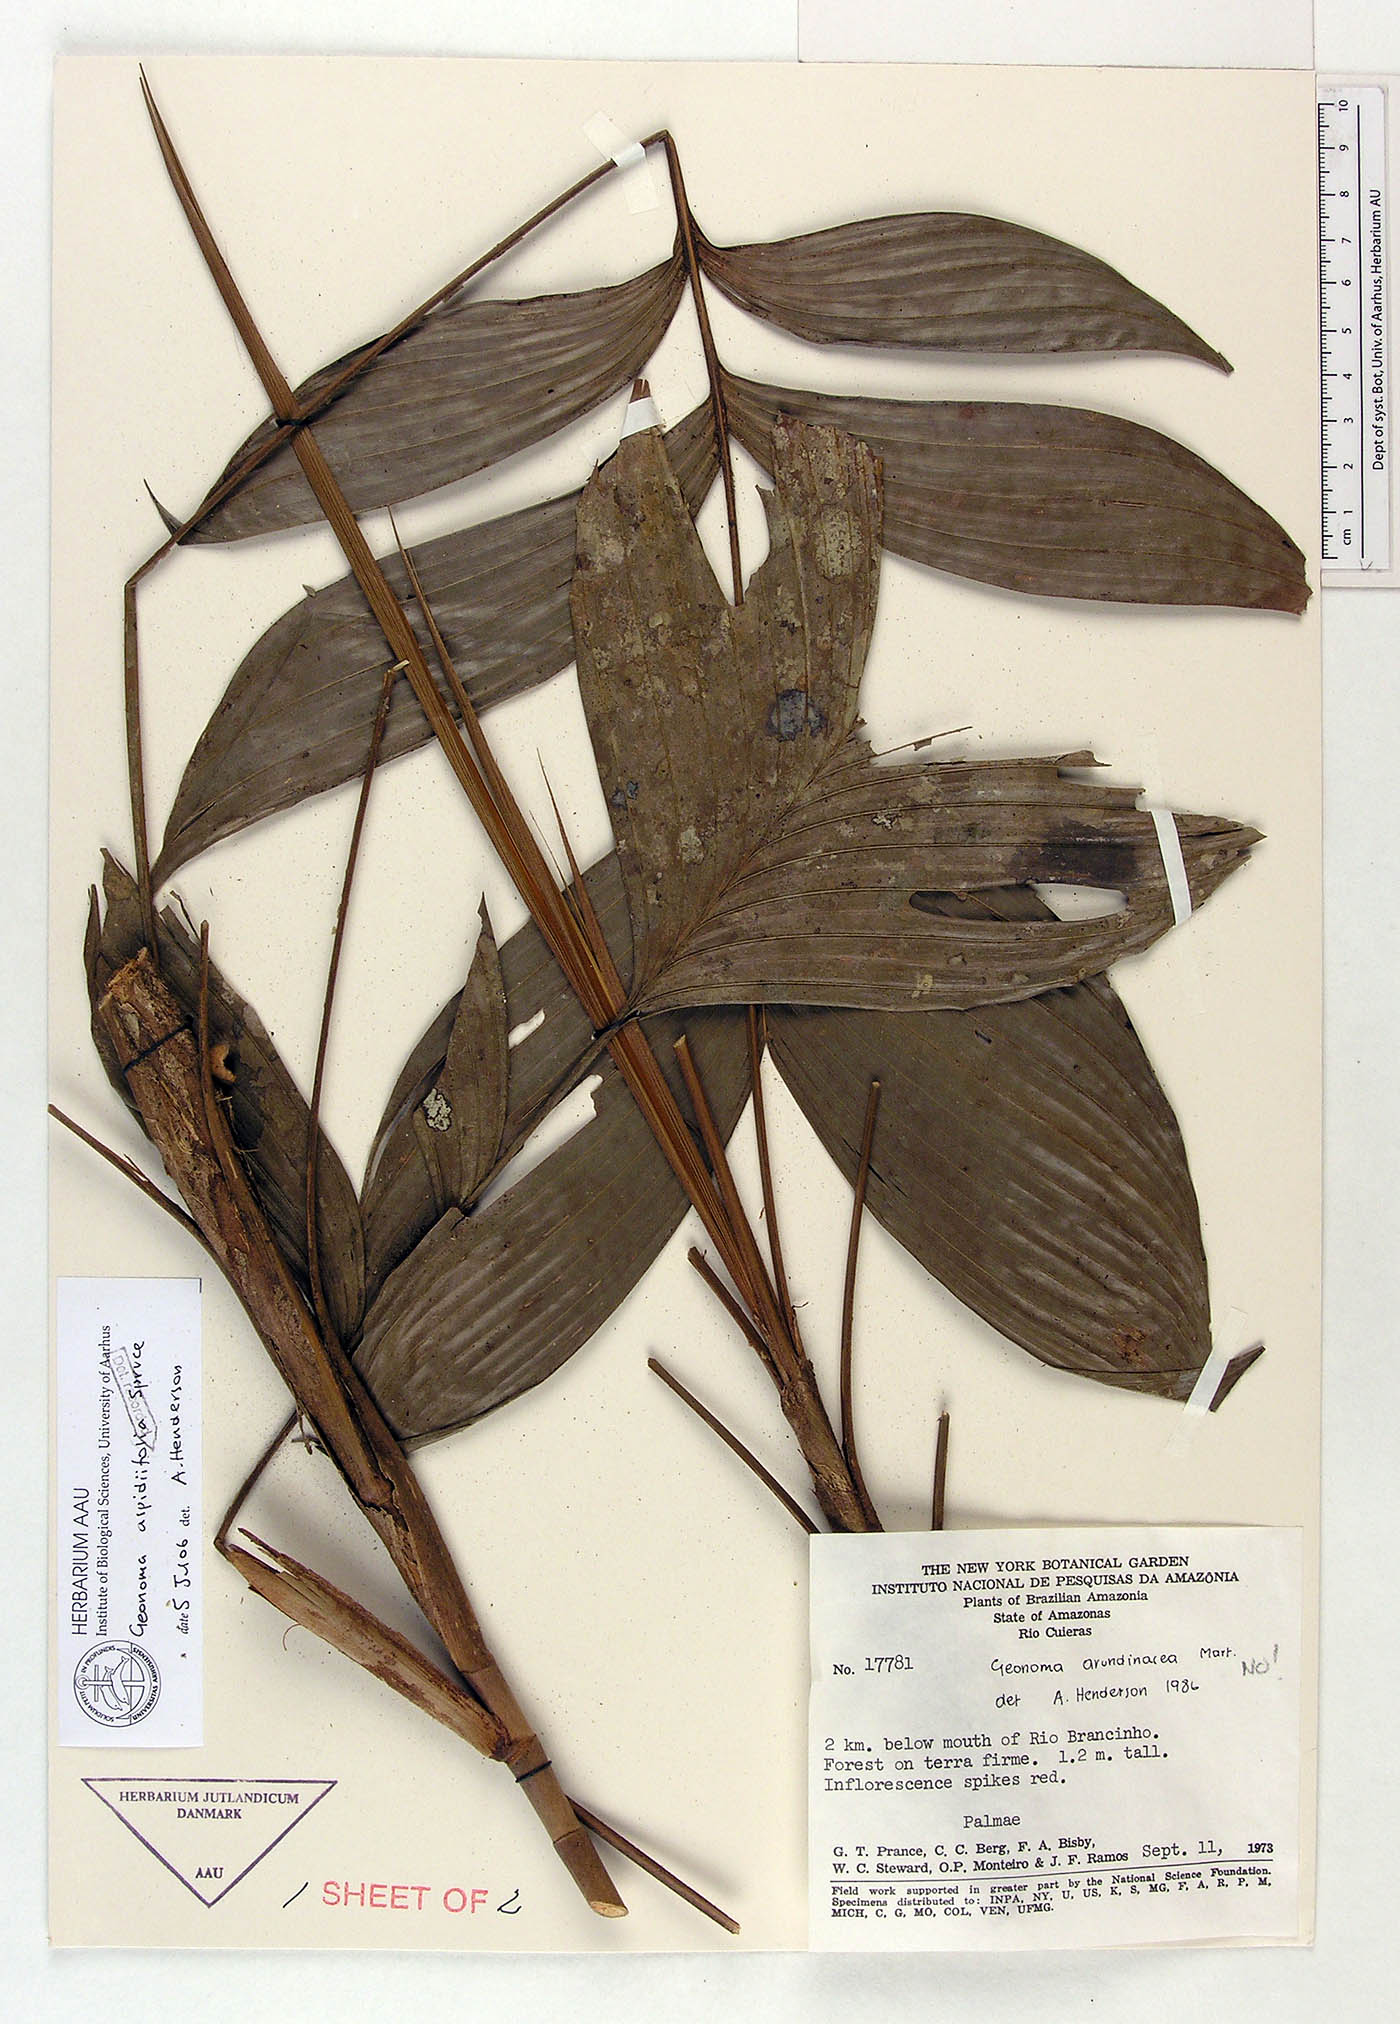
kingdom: Plantae
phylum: Tracheophyta
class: Liliopsida
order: Arecales
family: Arecaceae
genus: Geonoma
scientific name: Geonoma aspidiifolia
